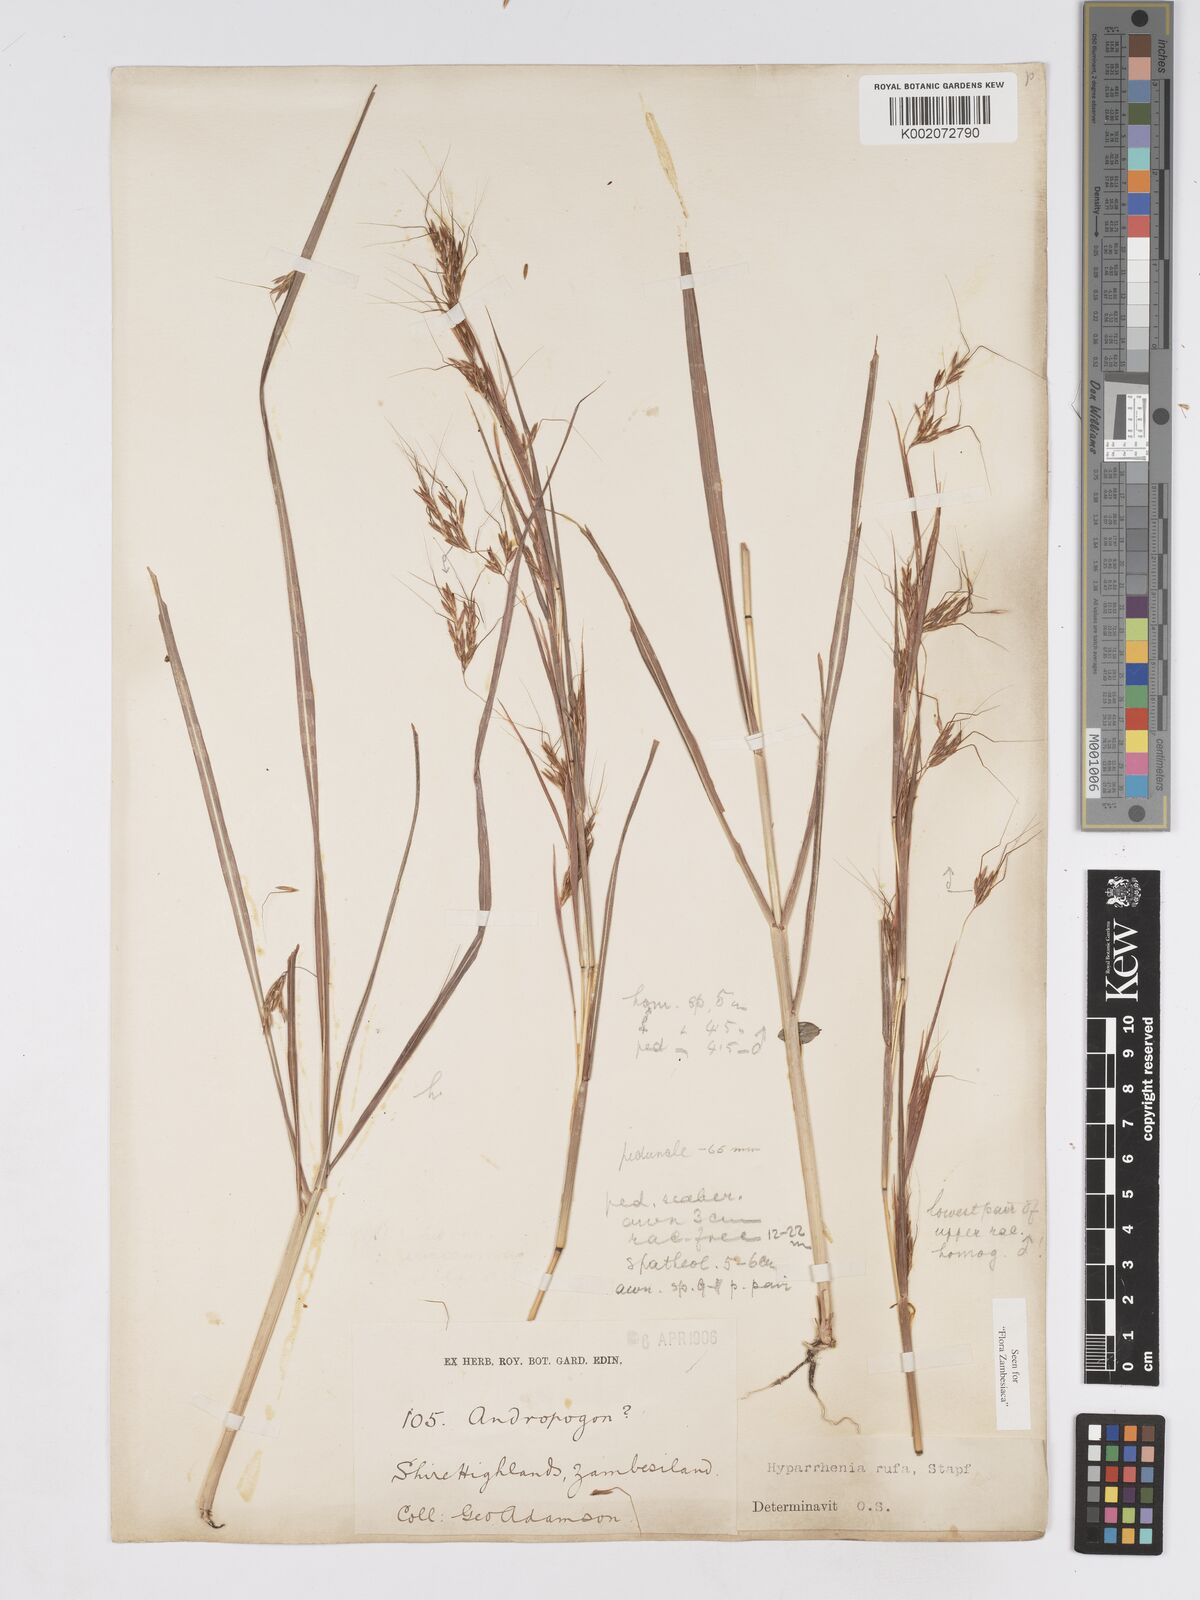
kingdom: Plantae
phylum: Tracheophyta
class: Liliopsida
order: Poales
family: Poaceae
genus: Hyparrhenia
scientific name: Hyparrhenia rufa
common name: Jaraguagrass
